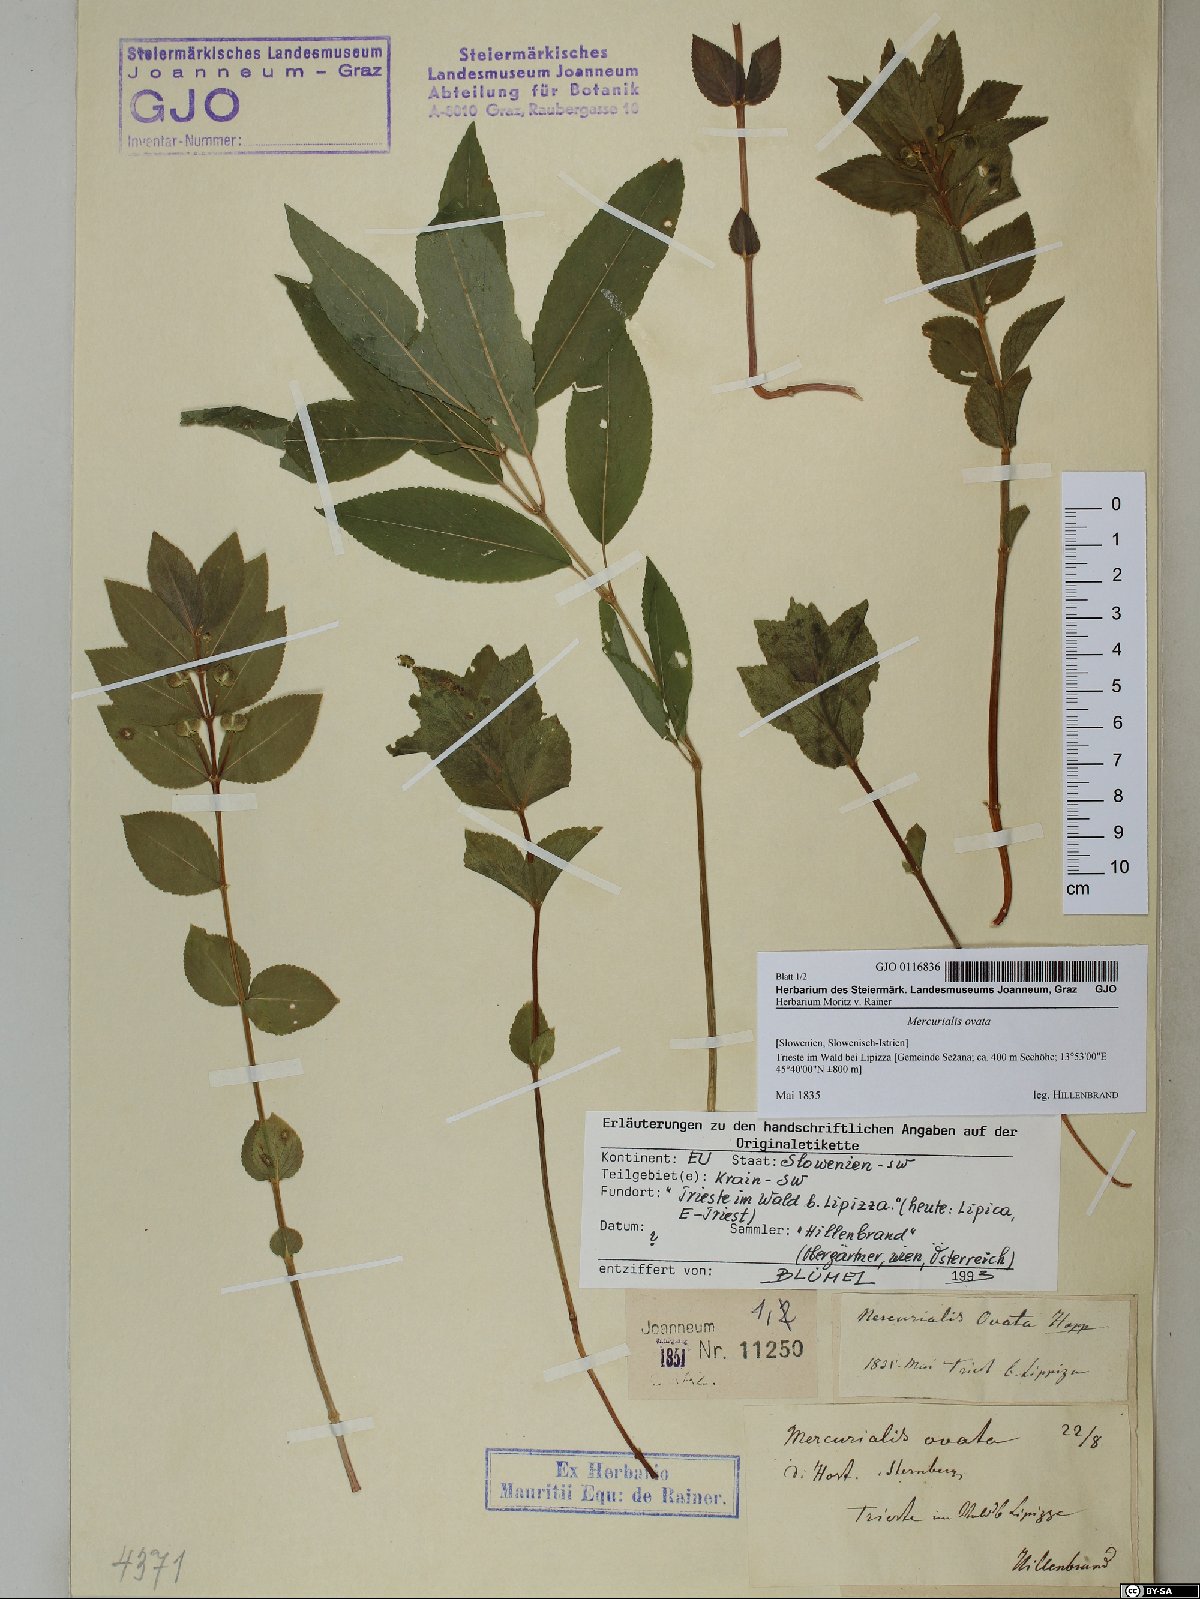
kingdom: Plantae
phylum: Tracheophyta
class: Magnoliopsida
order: Malpighiales
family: Euphorbiaceae
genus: Mercurialis
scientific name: Mercurialis ovata
